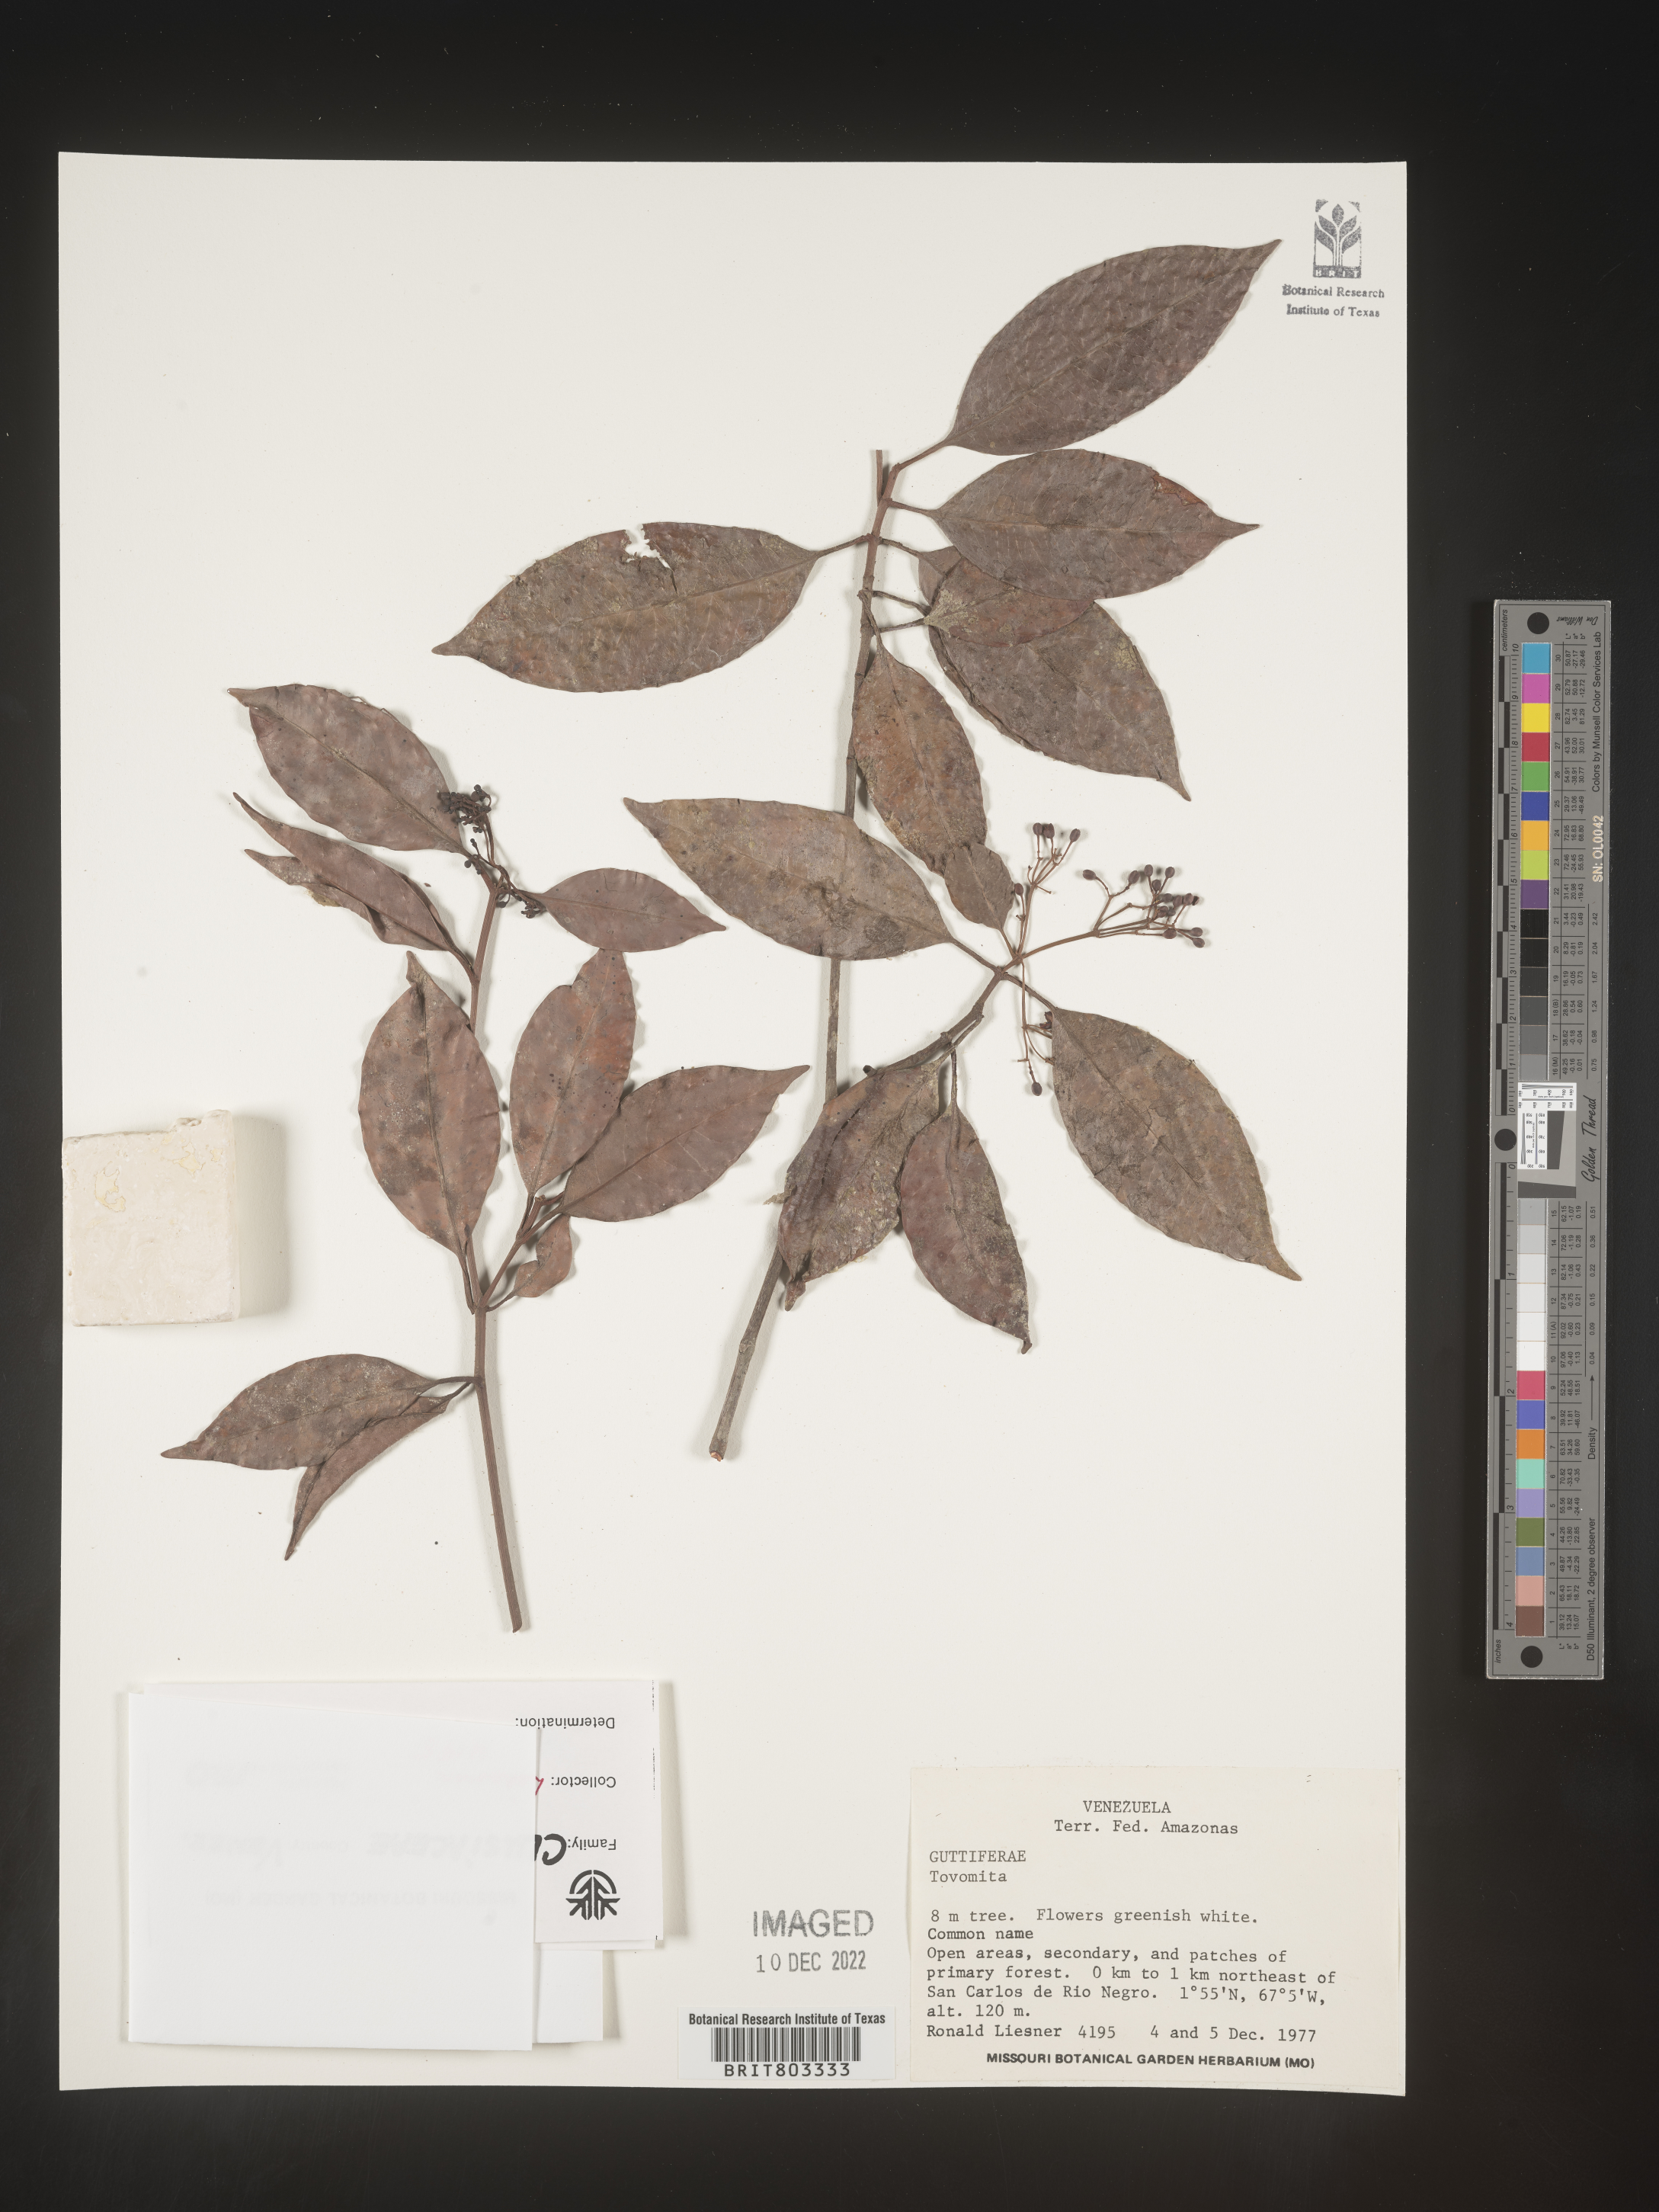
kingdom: Plantae
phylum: Tracheophyta
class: Magnoliopsida
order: Malpighiales
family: Clusiaceae
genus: Tovomita
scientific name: Tovomita
